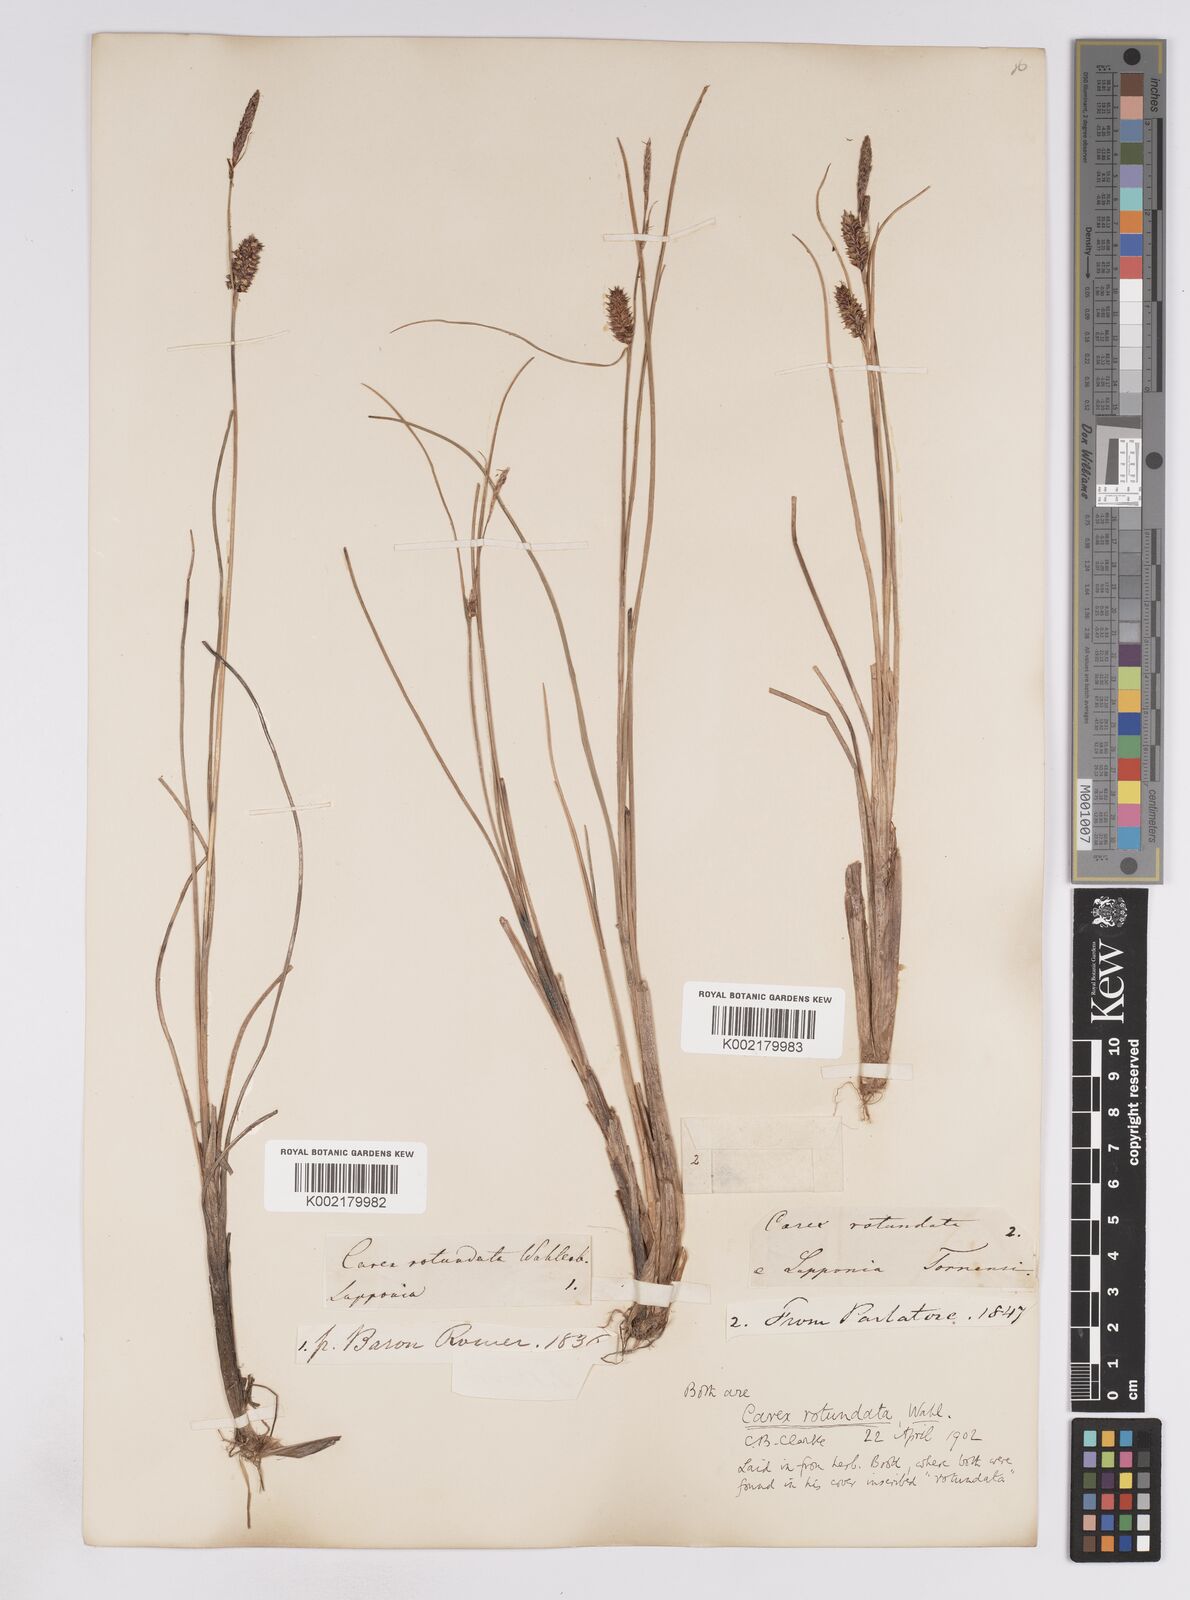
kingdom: Plantae
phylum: Tracheophyta
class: Liliopsida
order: Poales
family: Cyperaceae
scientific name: Cyperaceae
